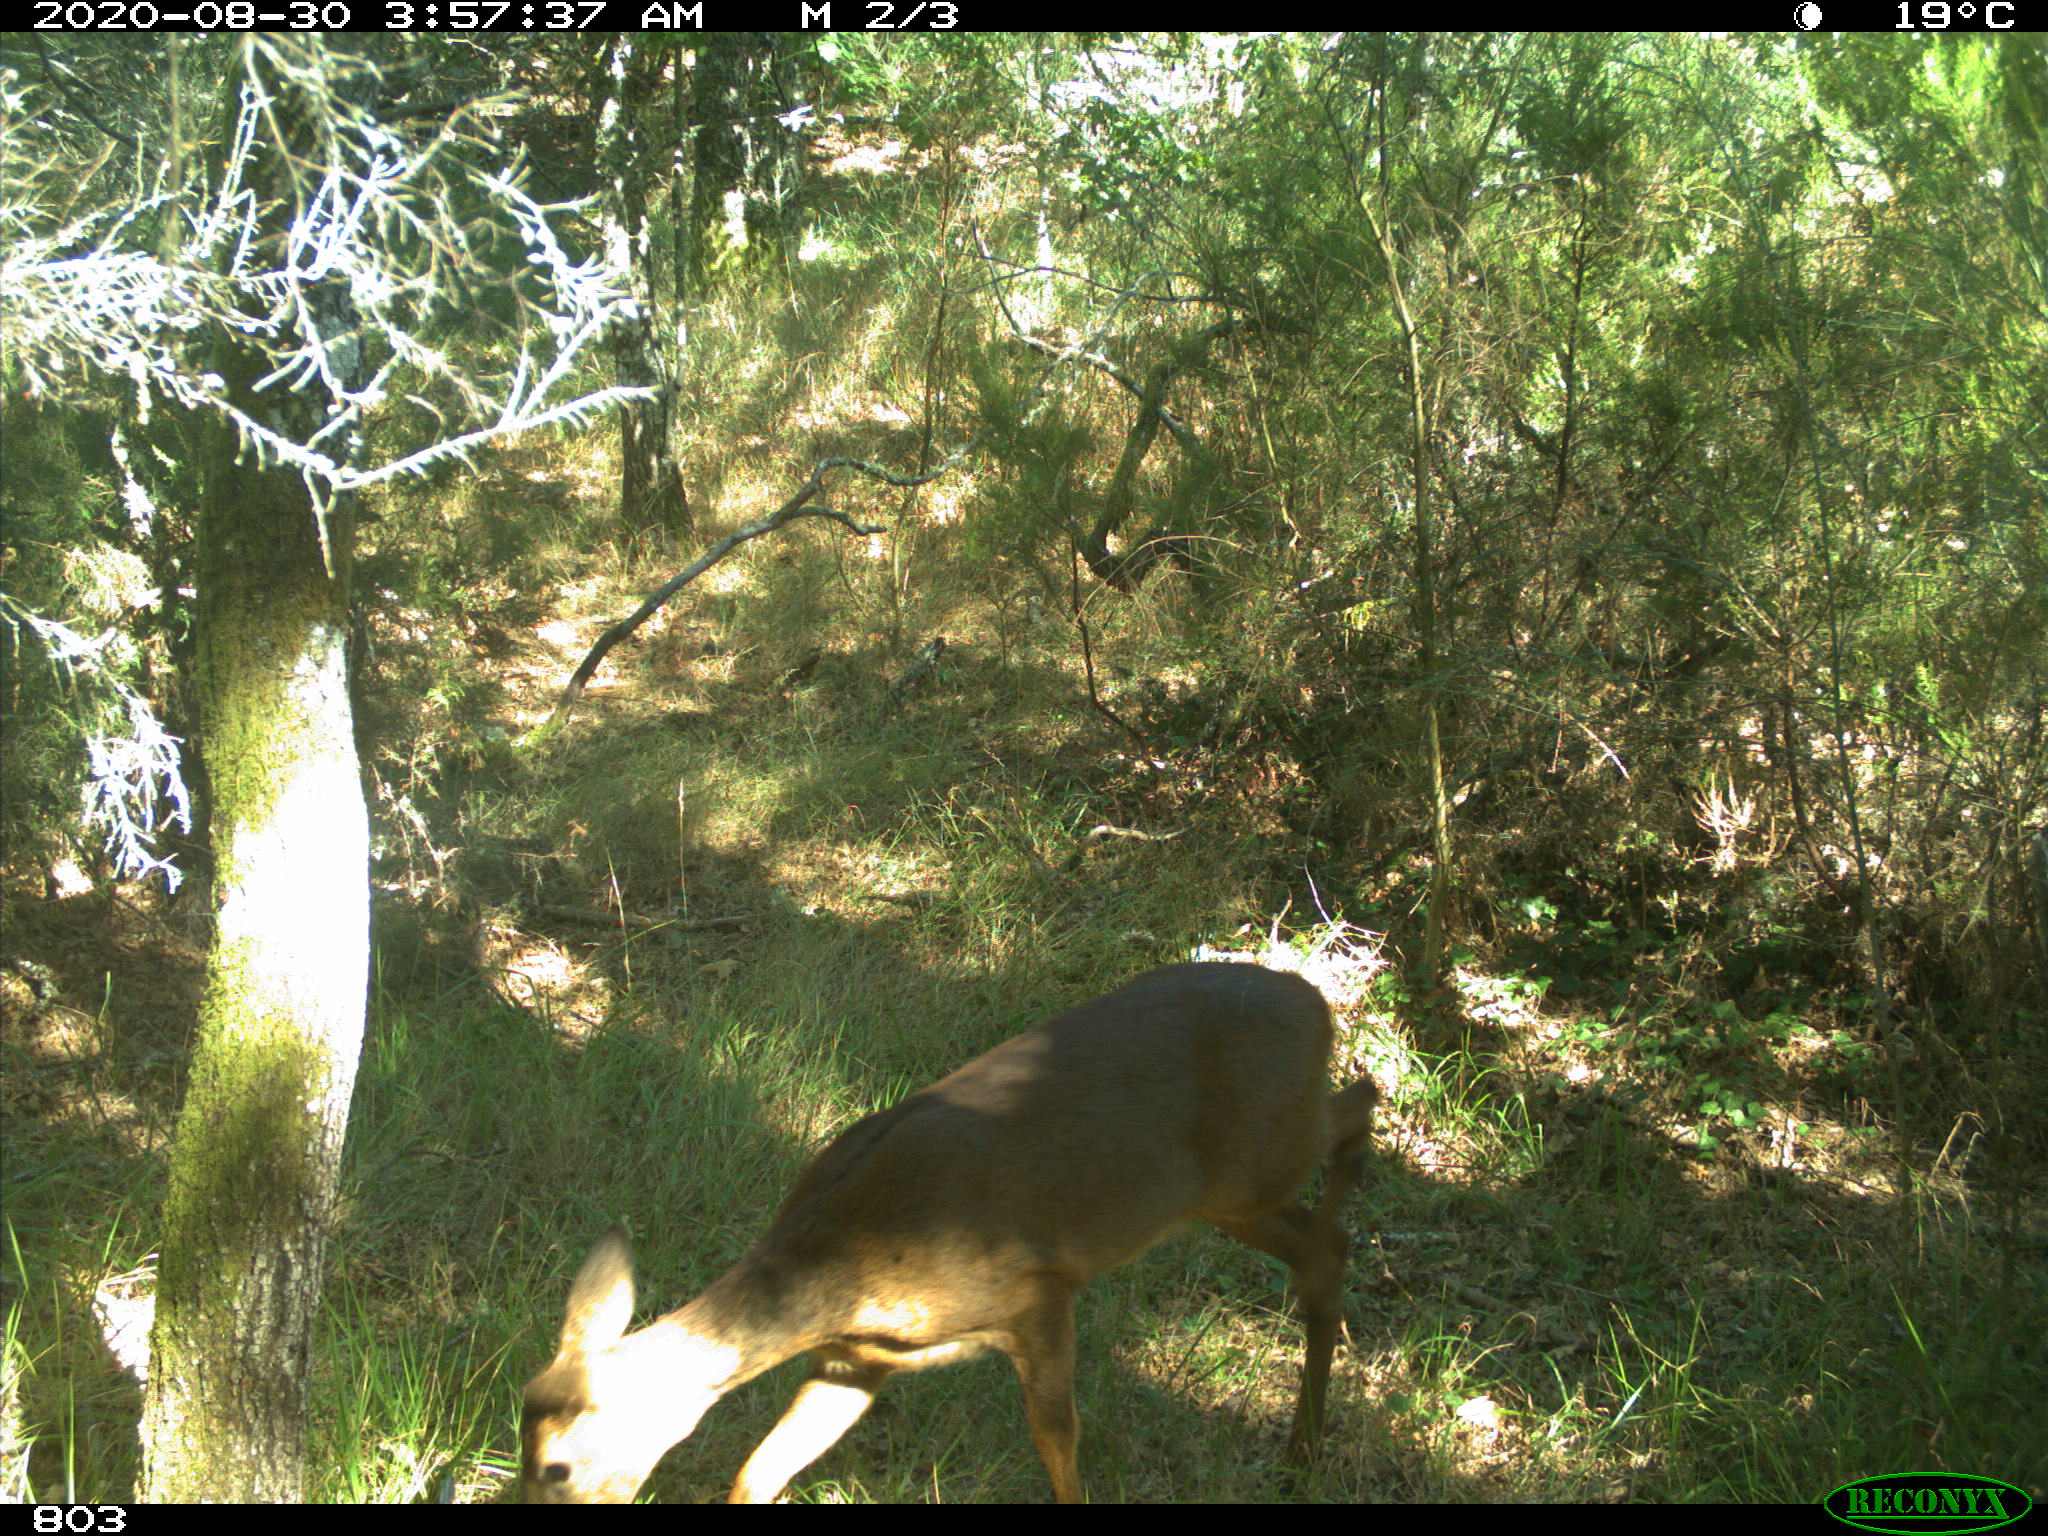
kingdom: Animalia
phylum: Chordata
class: Mammalia
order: Artiodactyla
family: Cervidae
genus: Capreolus
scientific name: Capreolus capreolus
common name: Western roe deer
